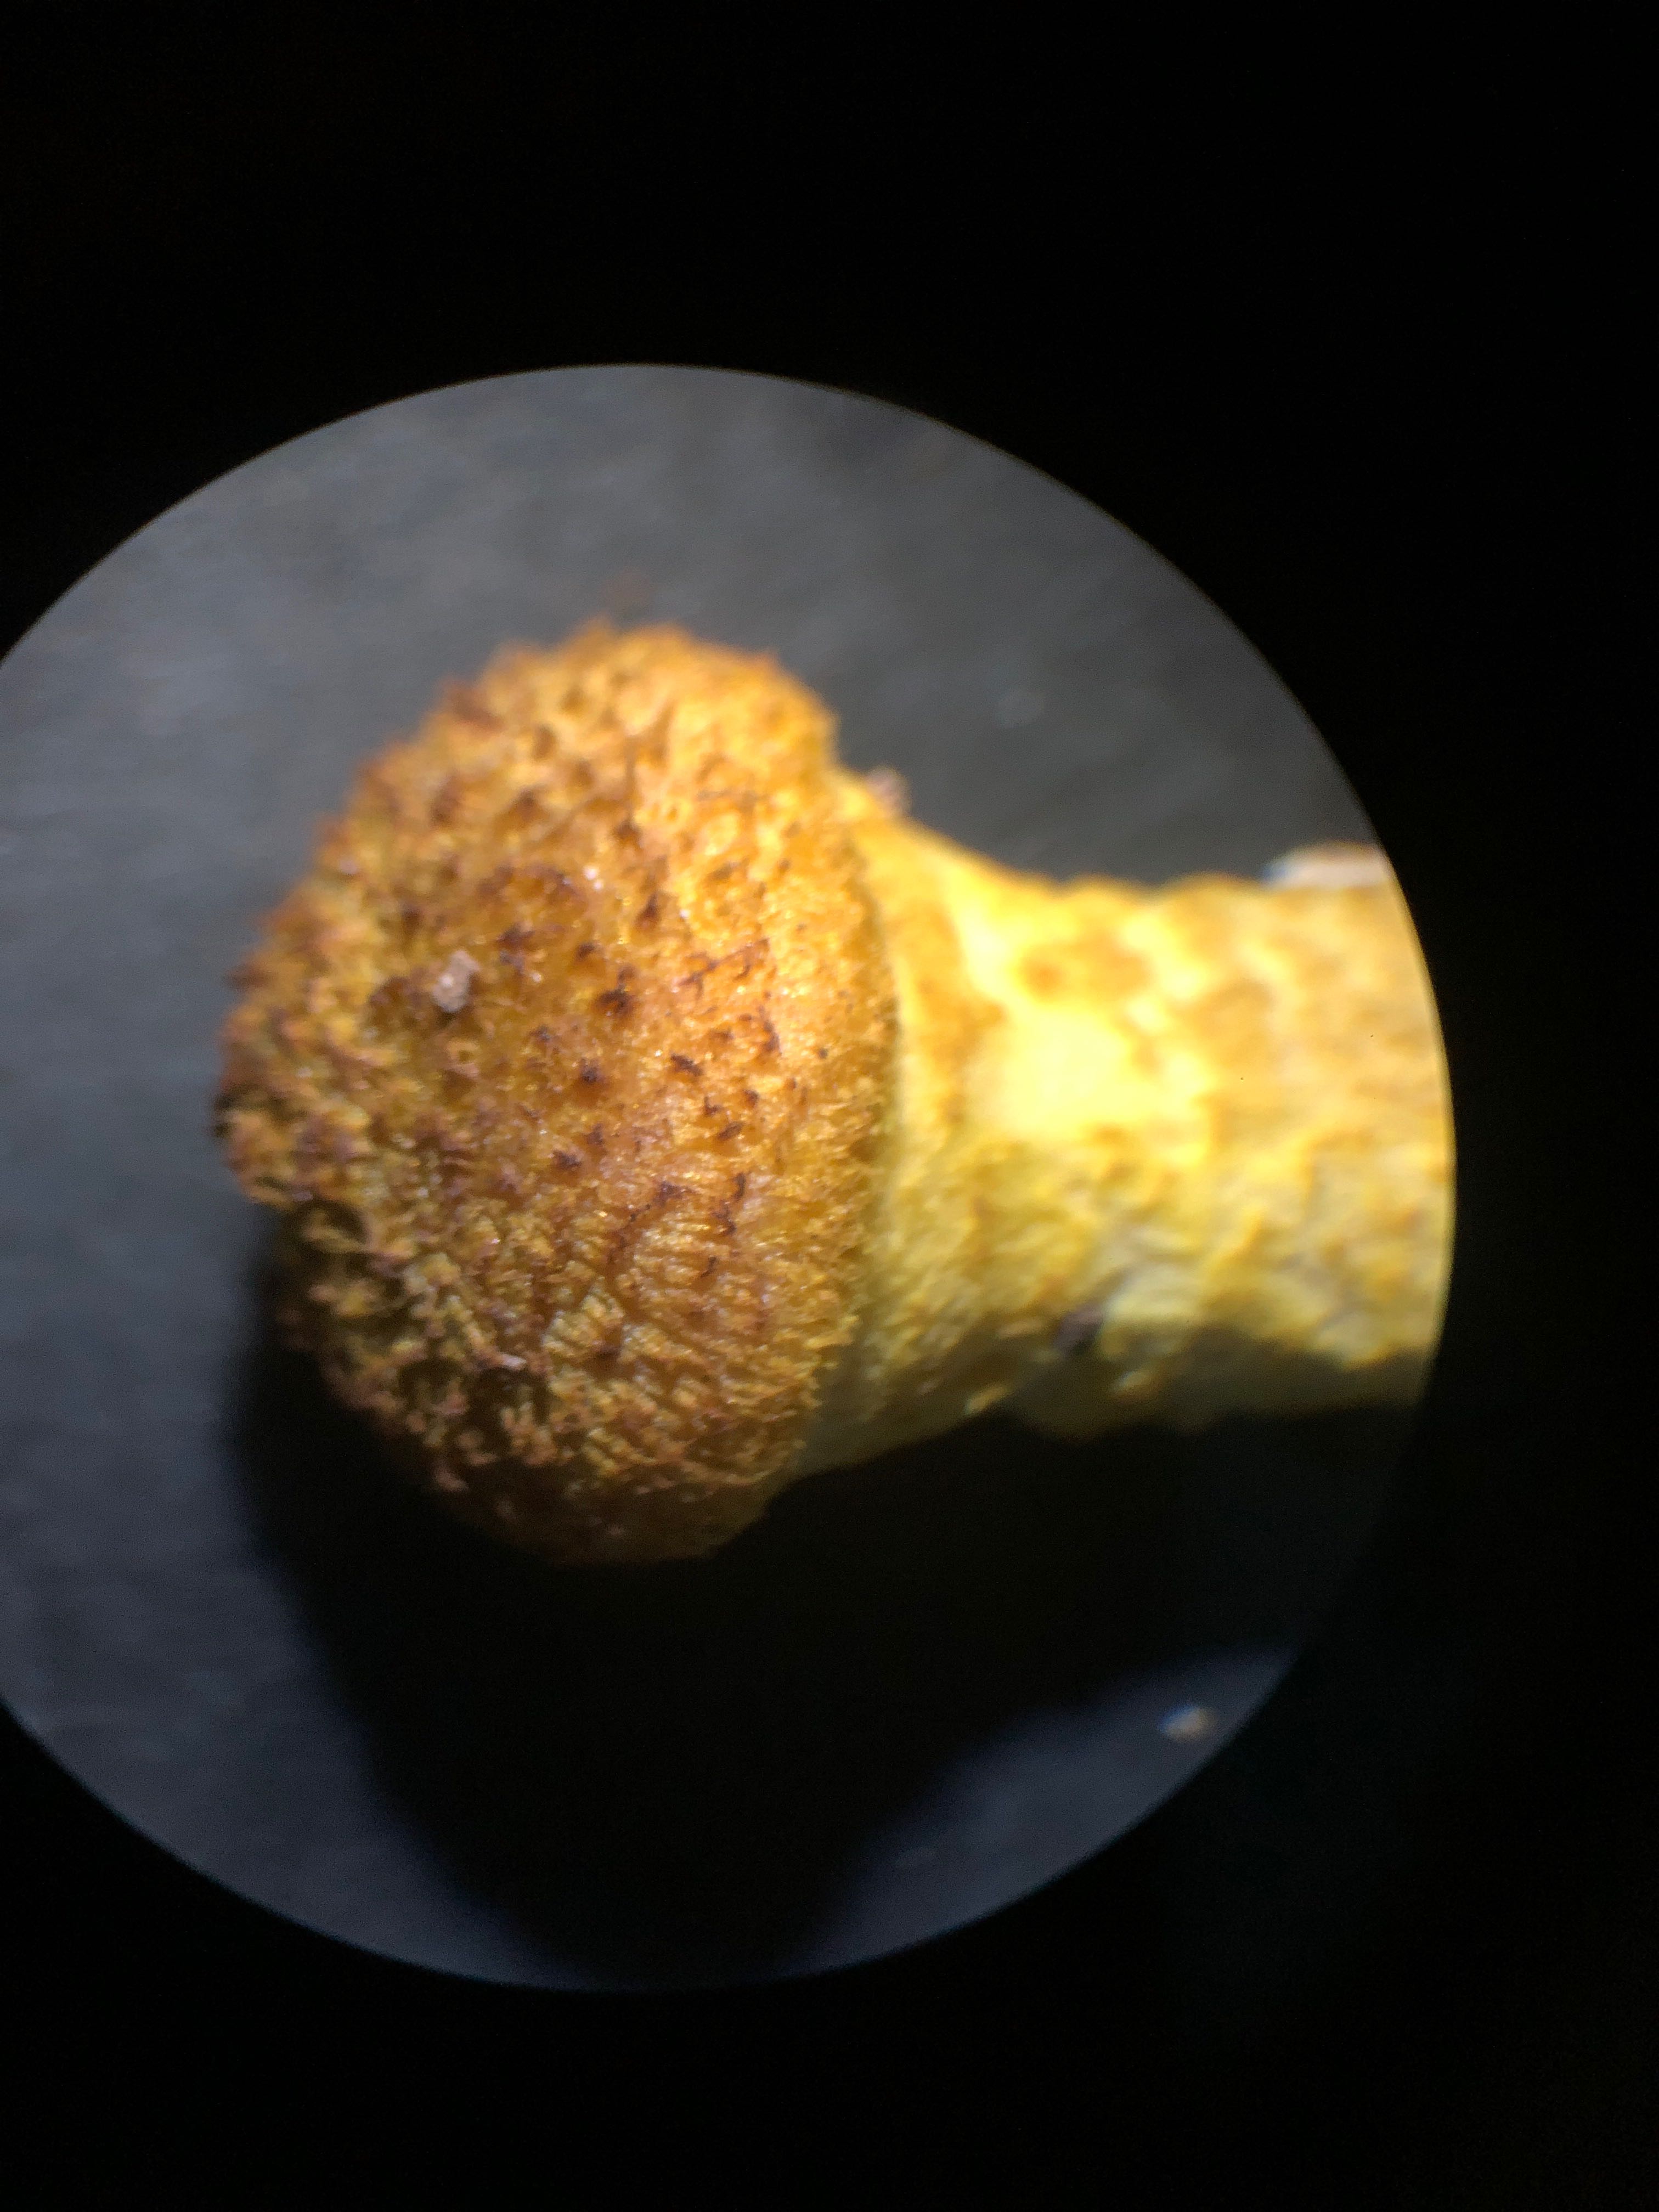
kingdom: Fungi
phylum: Basidiomycota
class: Agaricomycetes
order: Agaricales
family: Physalacriaceae
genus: Armillaria
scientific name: Armillaria lutea
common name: køllestokket honningsvamp
